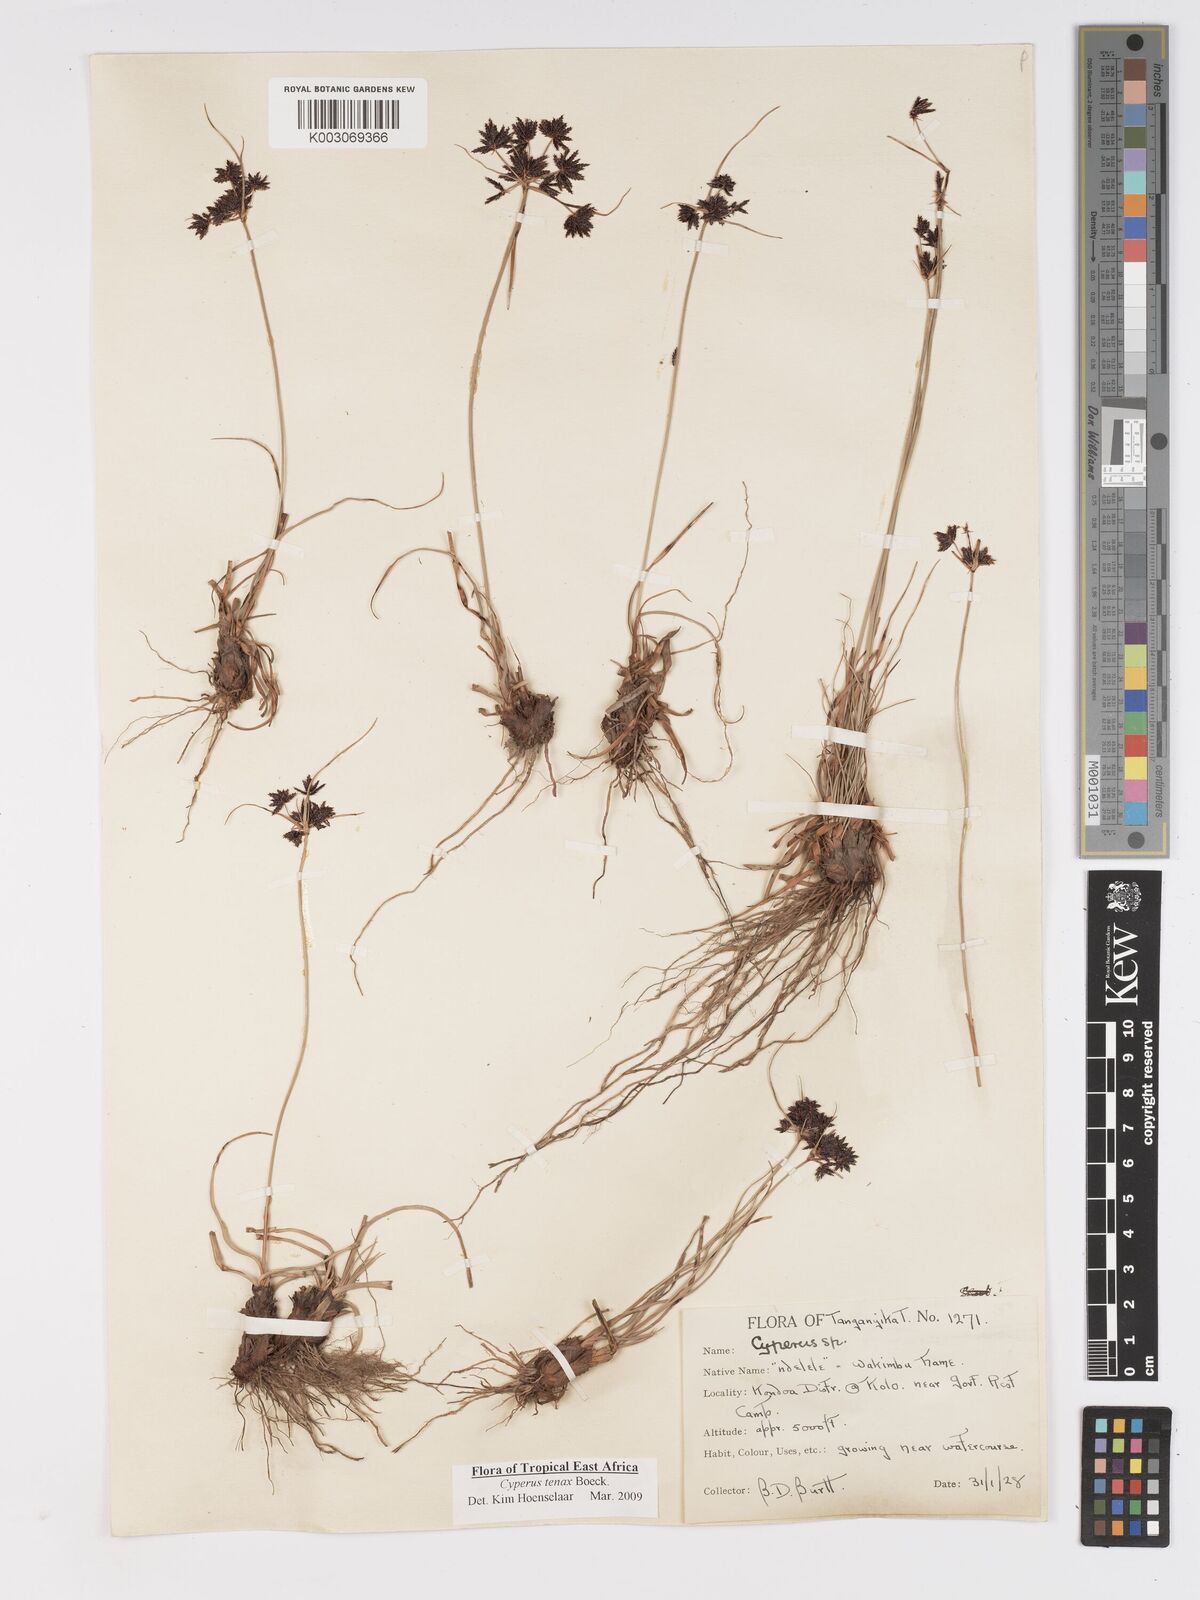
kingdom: Plantae
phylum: Tracheophyta
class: Liliopsida
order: Poales
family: Cyperaceae
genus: Cyperus
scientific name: Cyperus tenax
